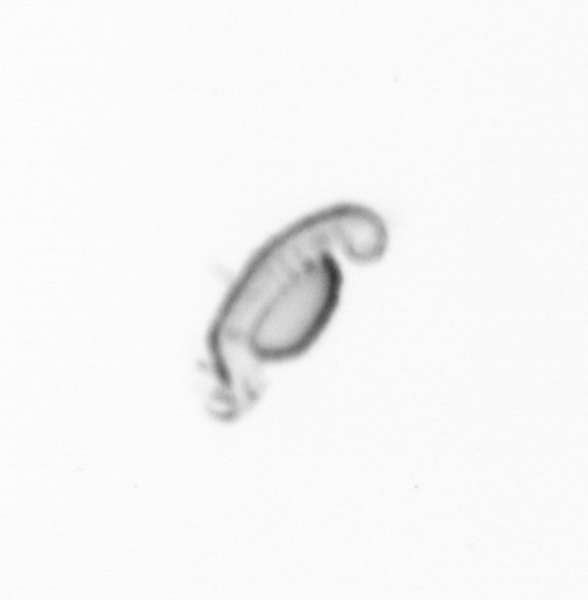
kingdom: Animalia
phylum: Annelida
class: Polychaeta
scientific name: Polychaeta
